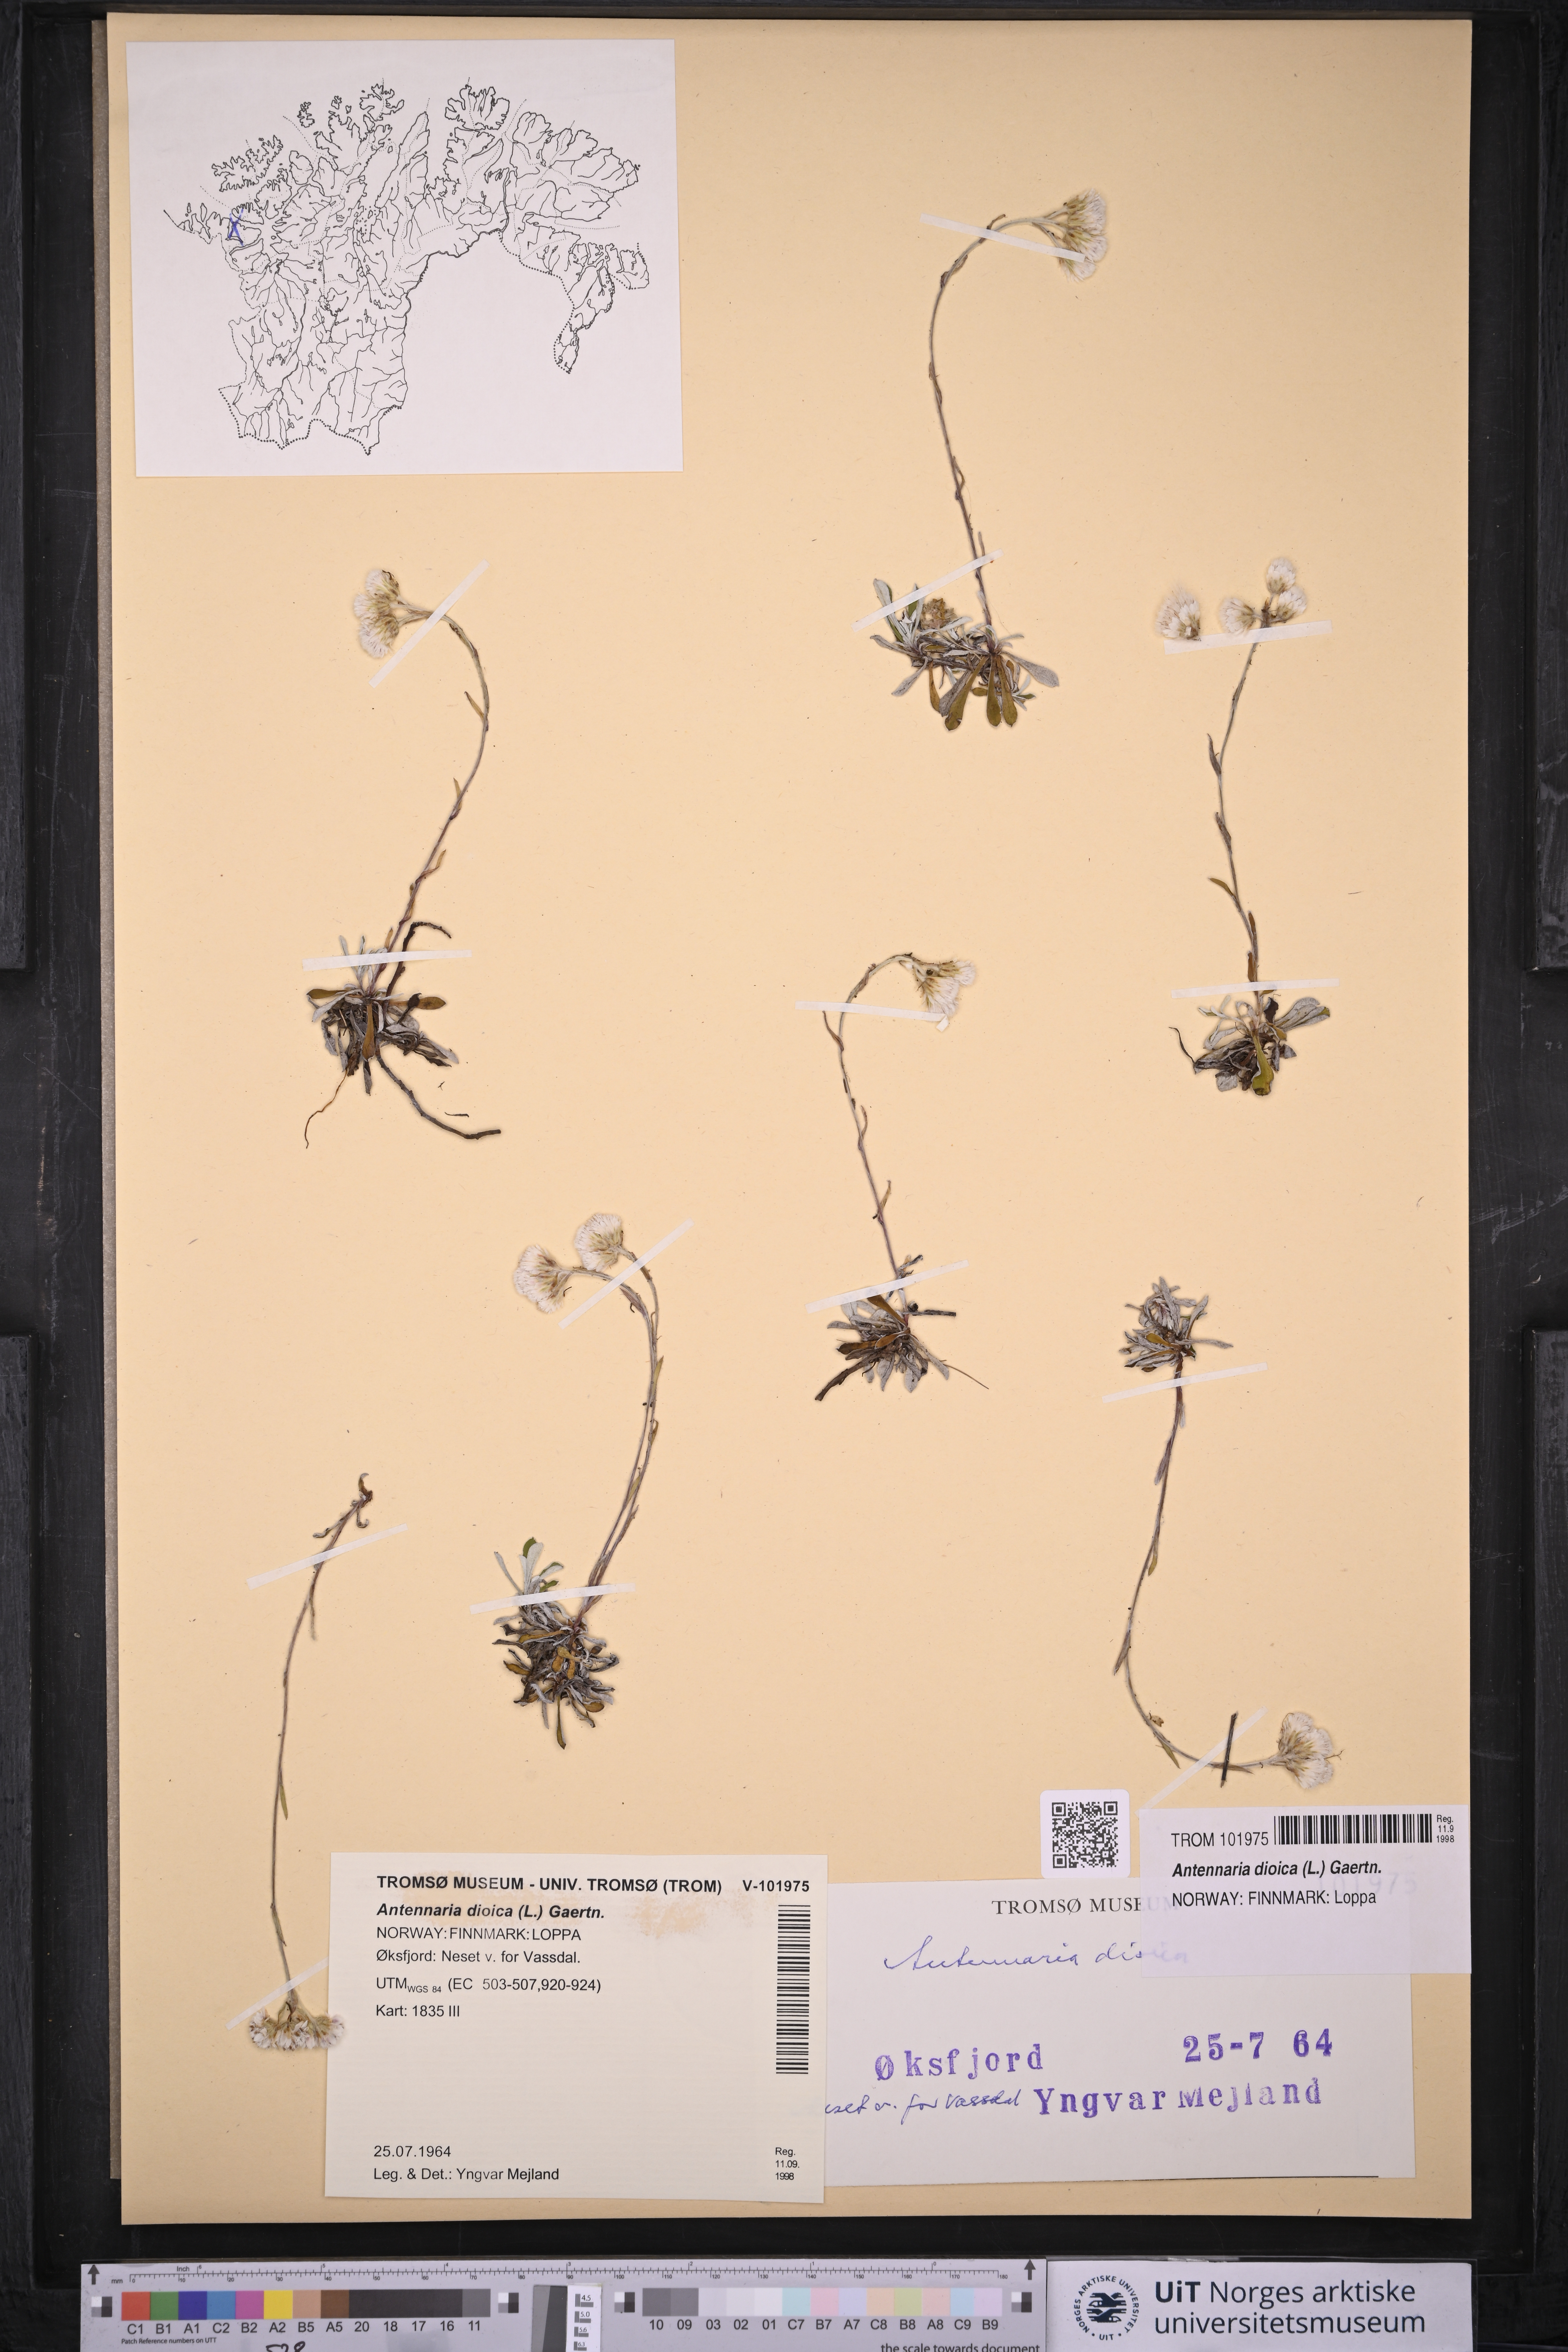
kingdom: Plantae
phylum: Tracheophyta
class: Magnoliopsida
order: Asterales
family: Asteraceae
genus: Antennaria
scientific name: Antennaria dioica
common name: Mountain everlasting
